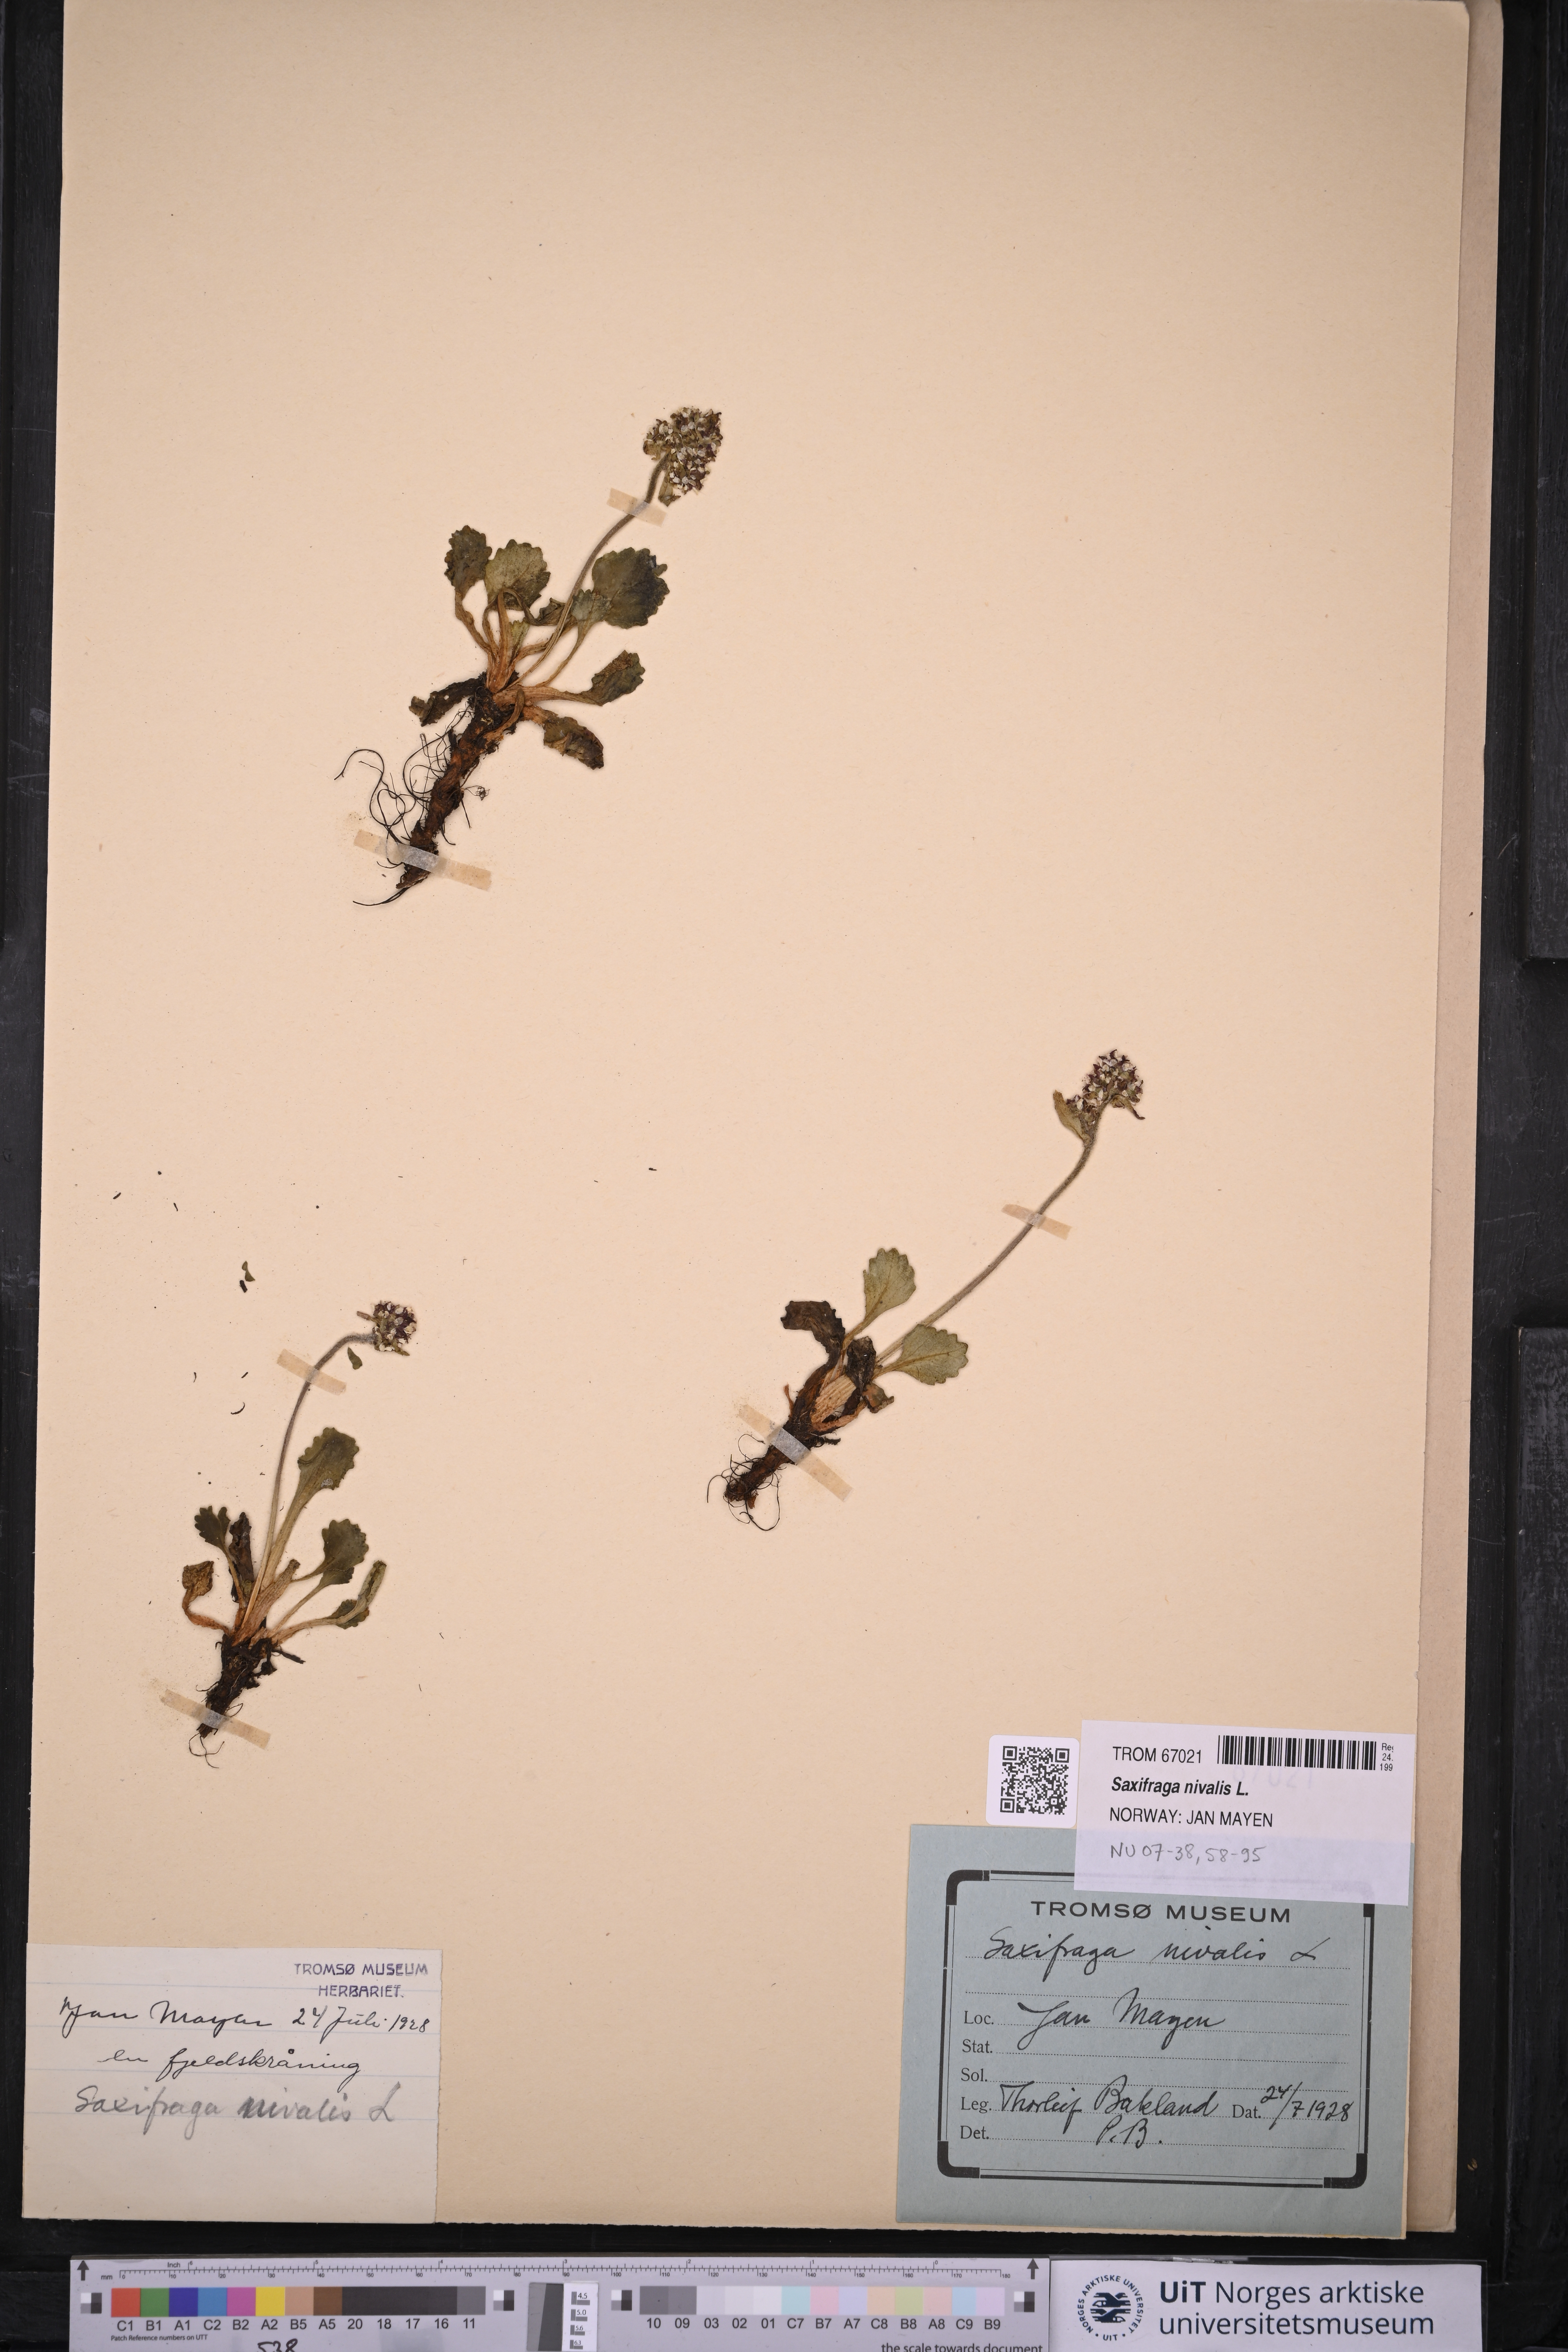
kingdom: Plantae
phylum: Tracheophyta
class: Magnoliopsida
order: Saxifragales
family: Saxifragaceae
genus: Micranthes
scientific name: Micranthes nivalis
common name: Alpine saxifrage
